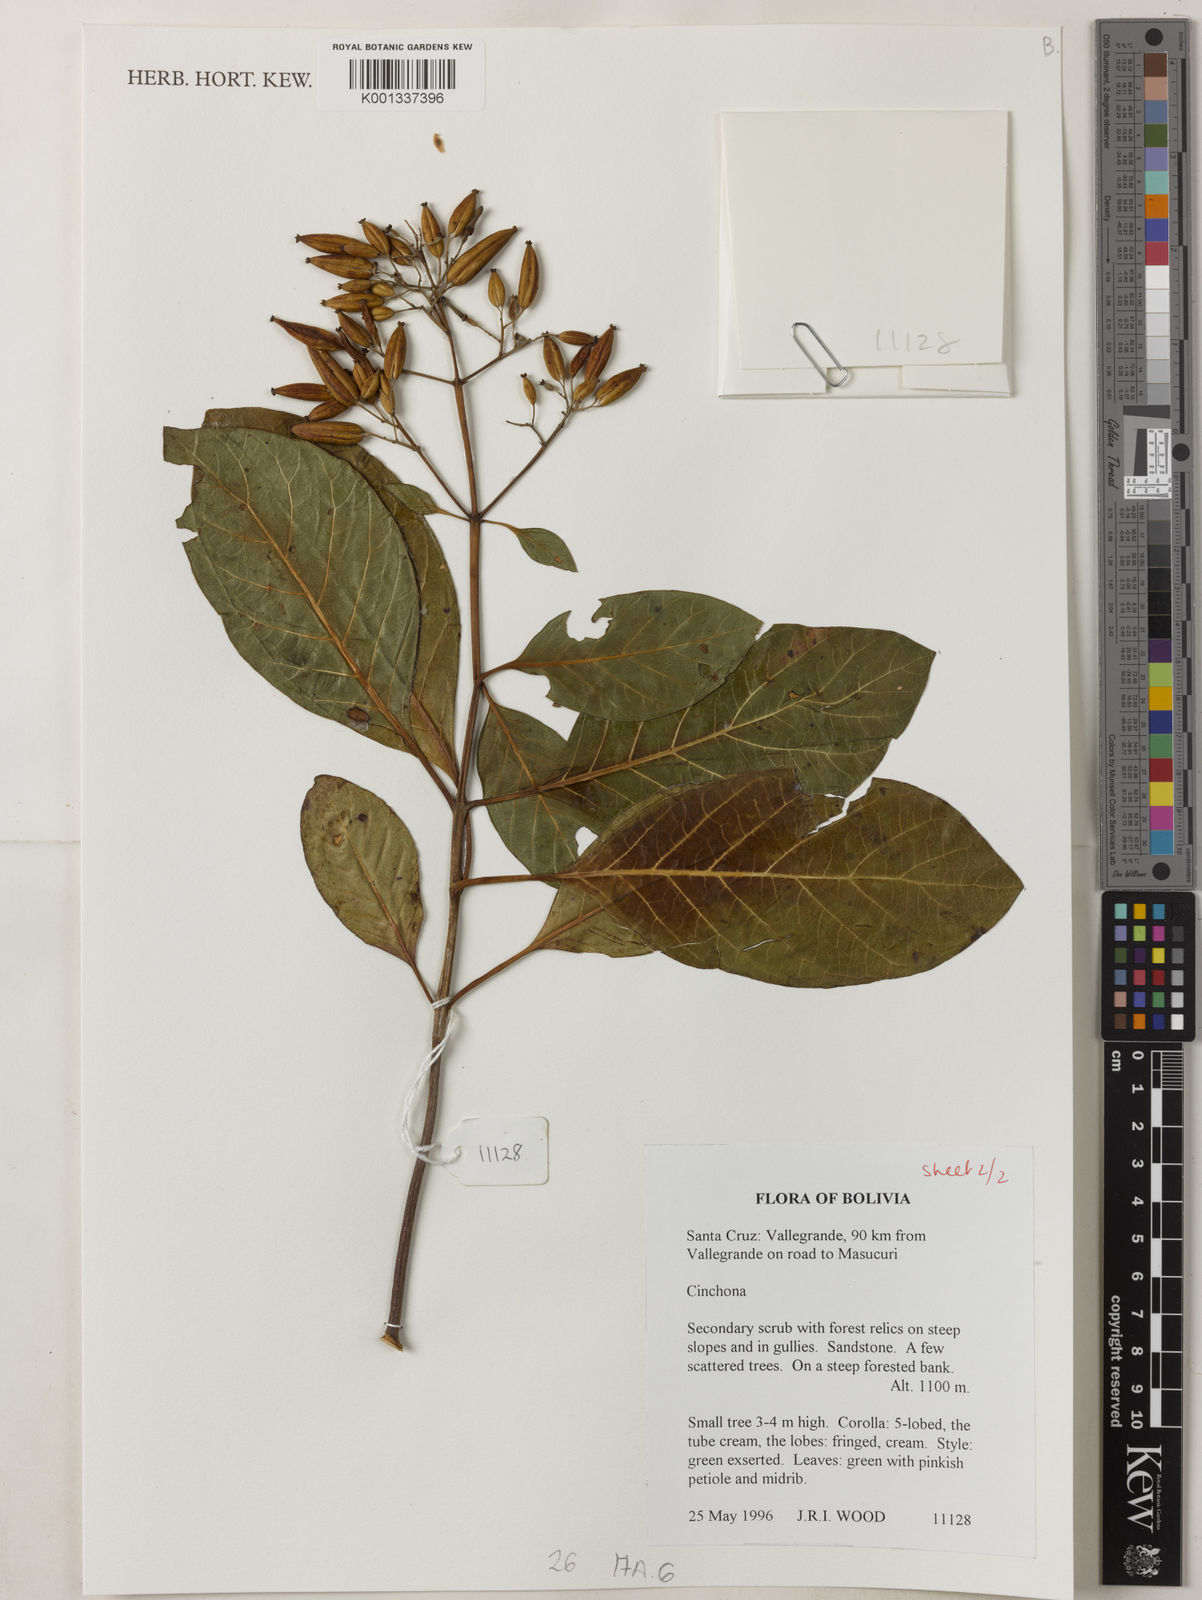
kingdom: Plantae
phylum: Tracheophyta
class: Magnoliopsida
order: Gentianales
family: Rubiaceae
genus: Cinchona
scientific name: Cinchona
